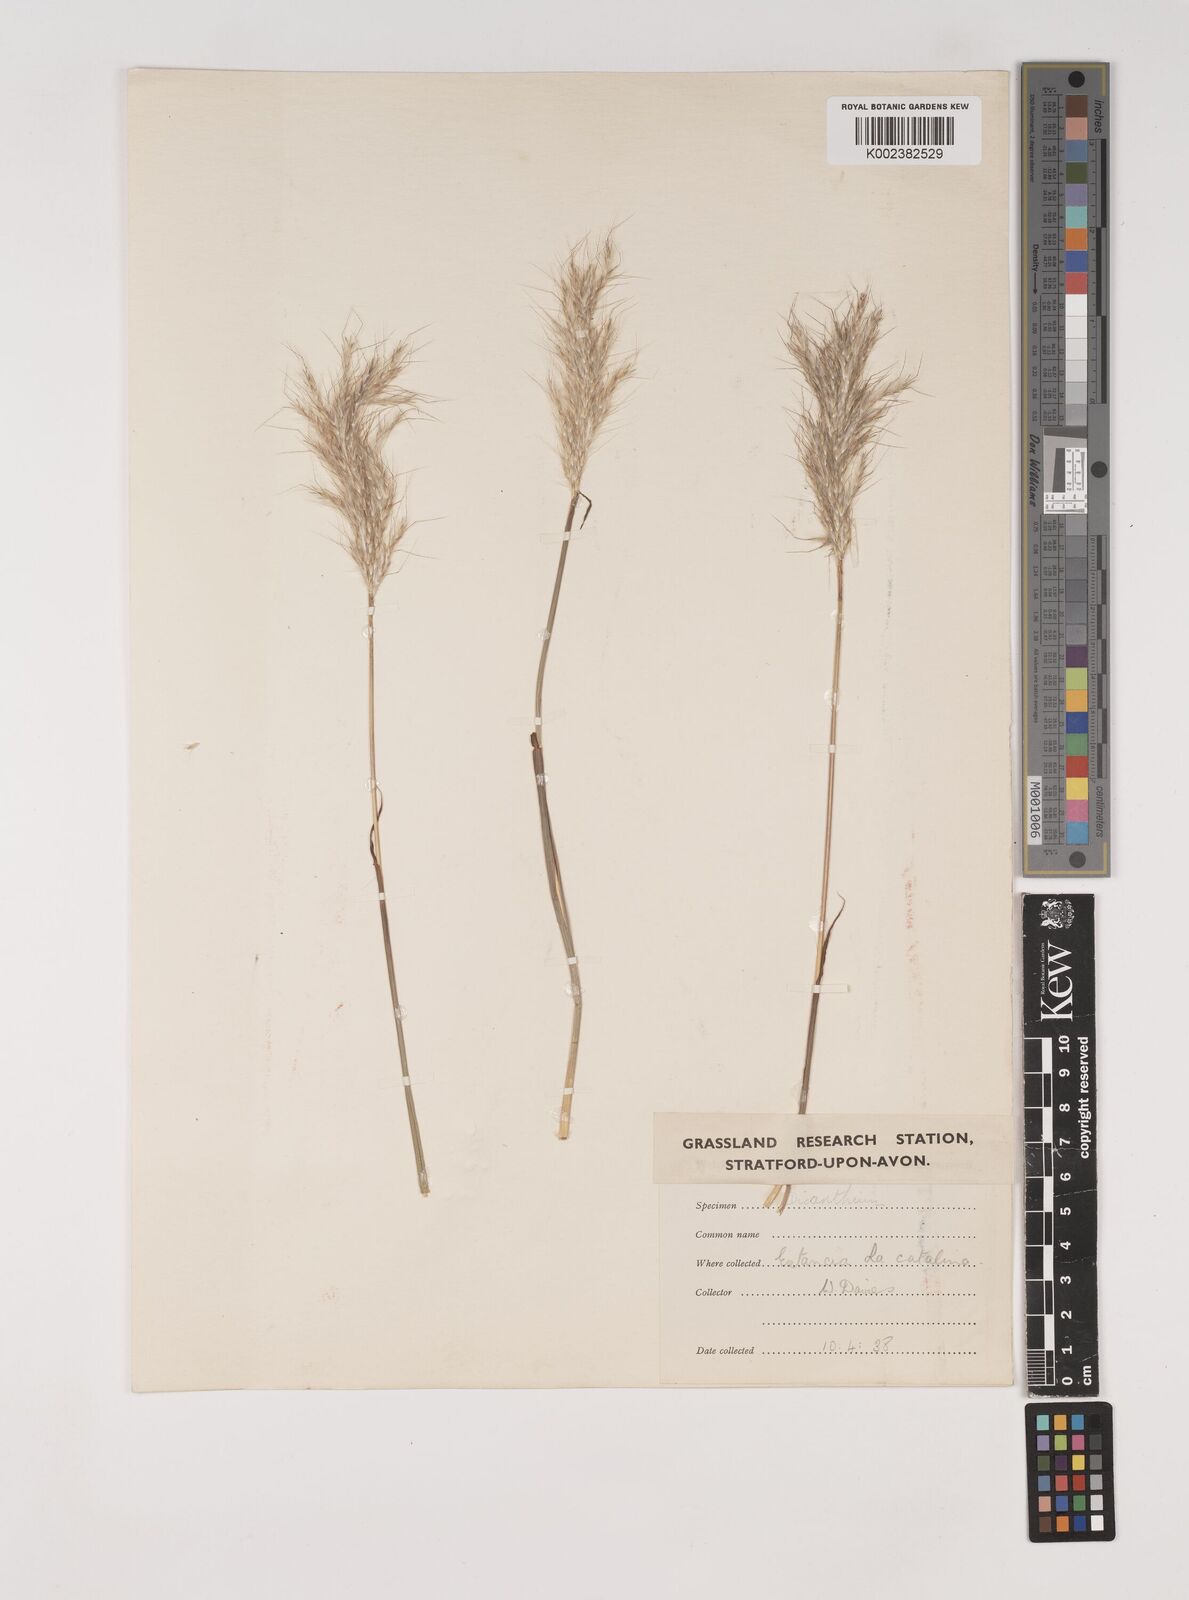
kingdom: Plantae
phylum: Tracheophyta
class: Liliopsida
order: Poales
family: Poaceae
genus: Bothriochloa
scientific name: Bothriochloa saccharoides
